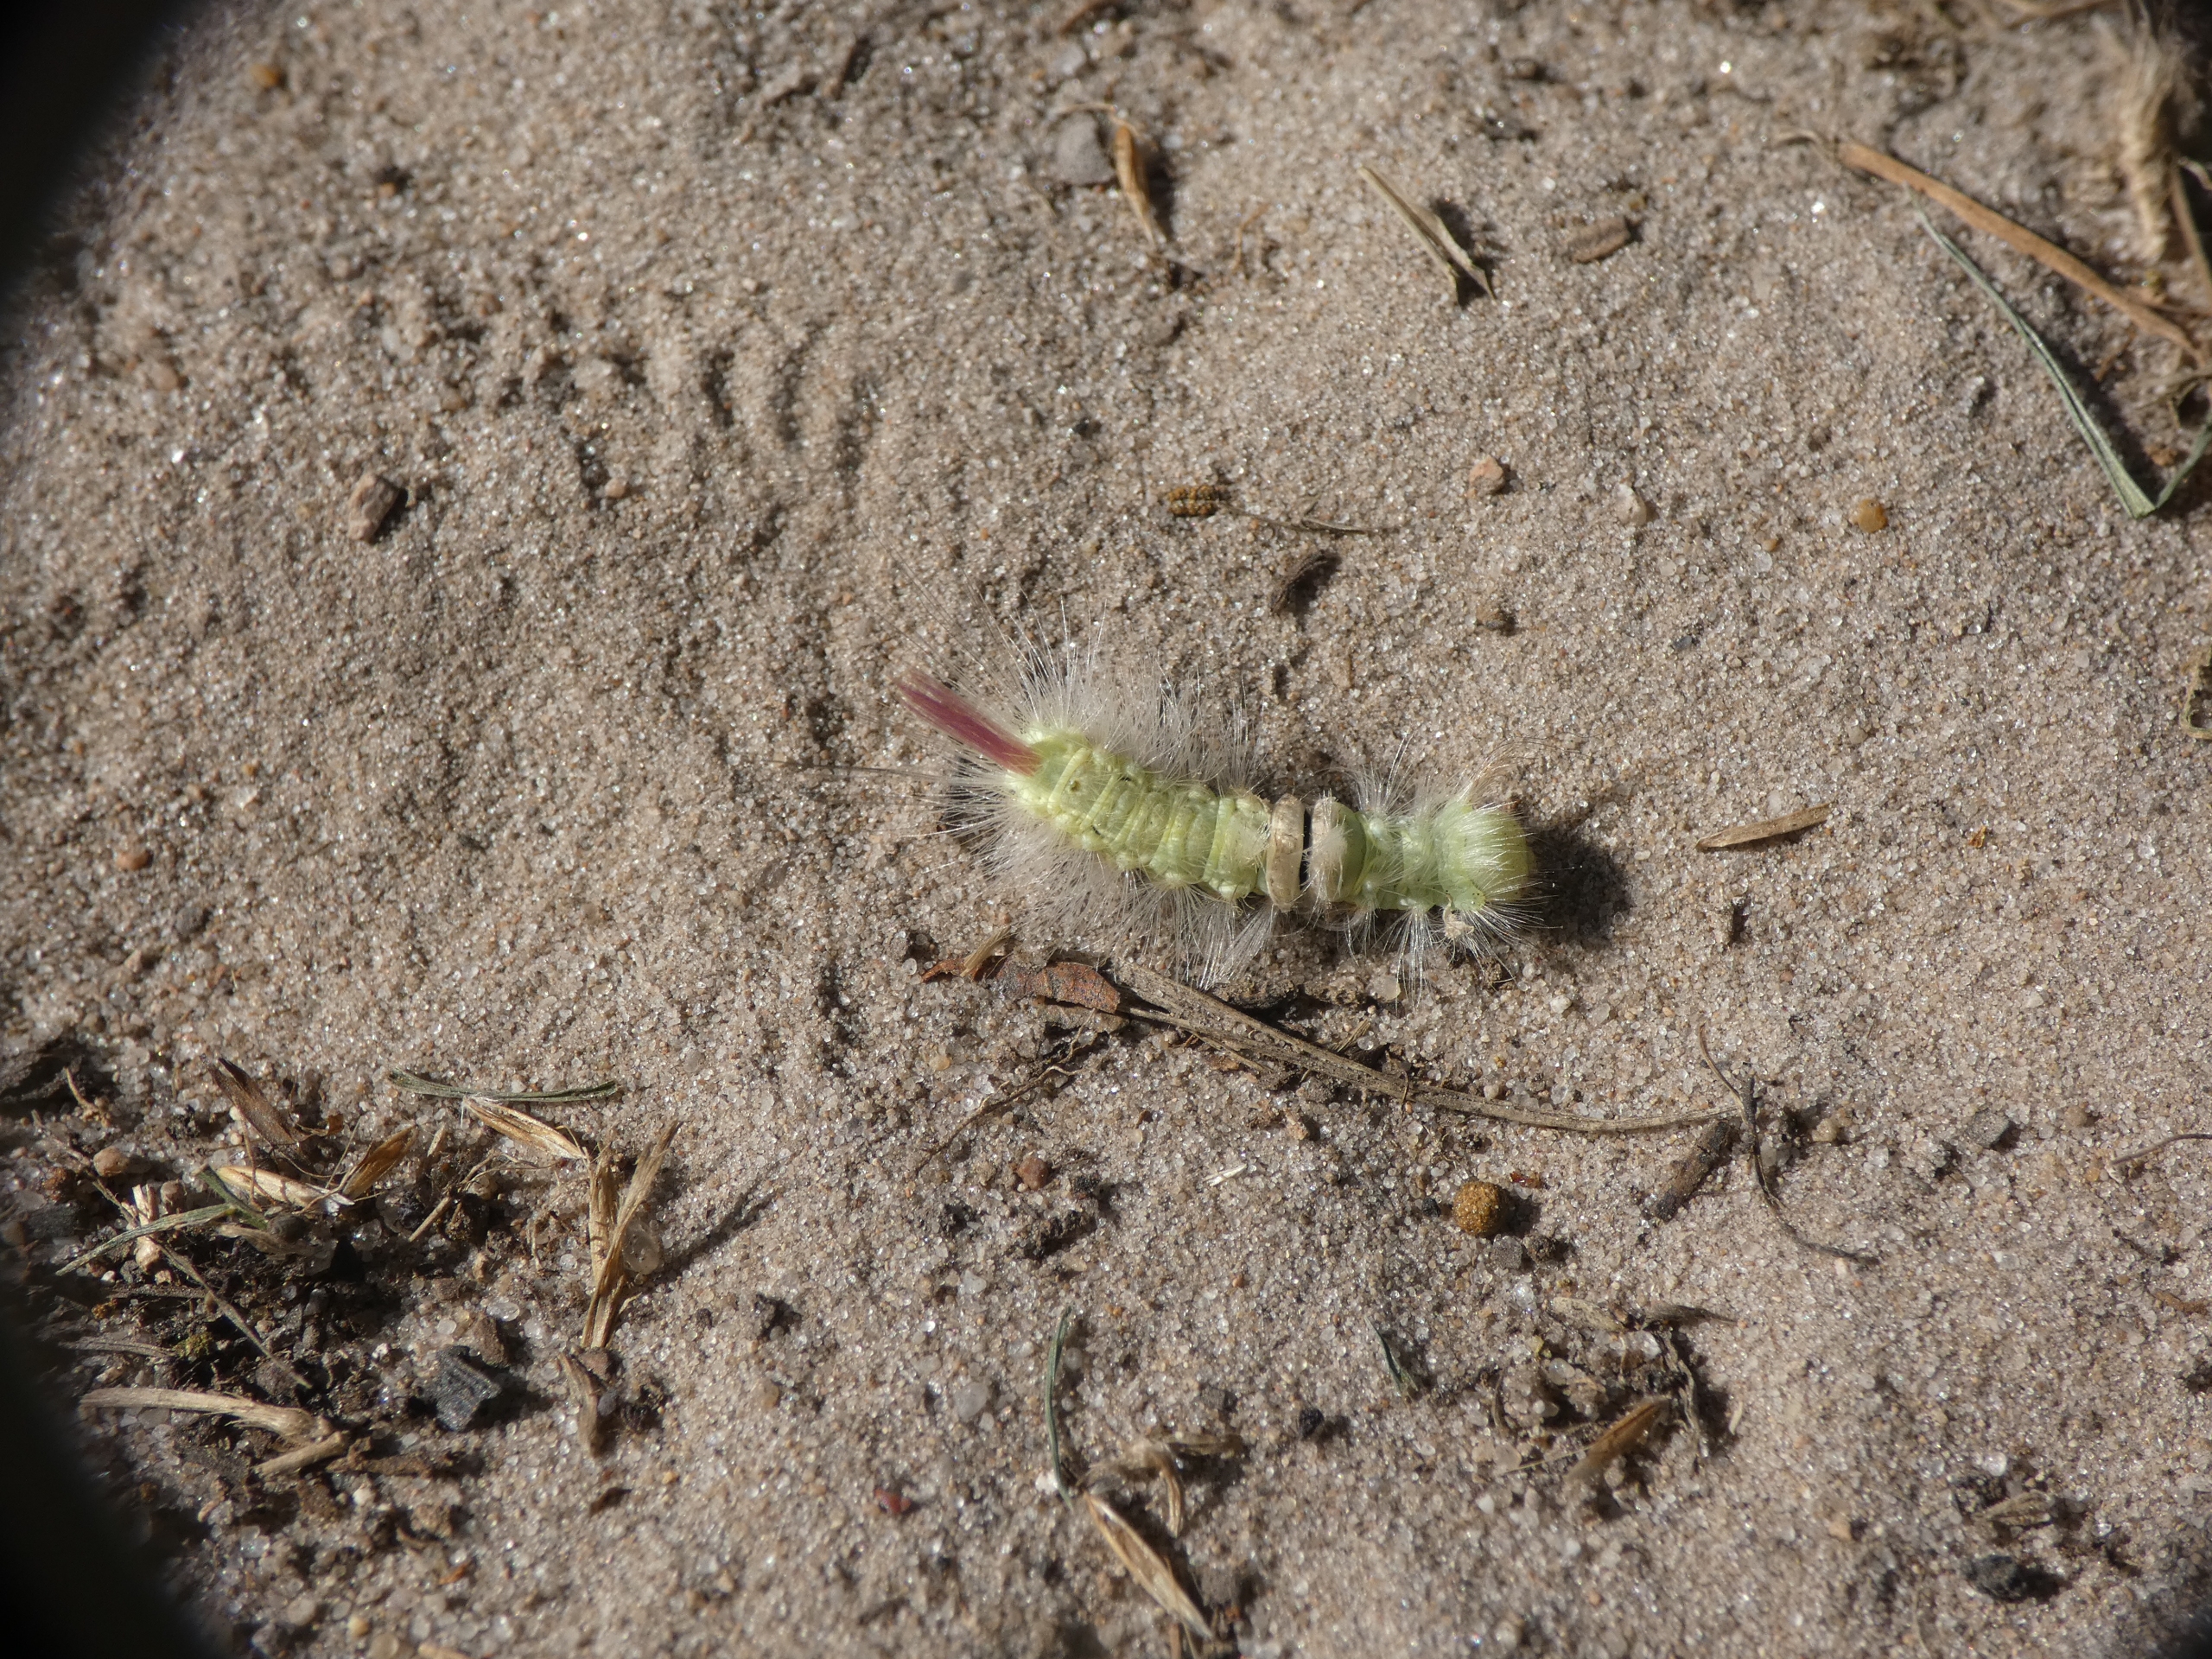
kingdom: Animalia
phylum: Arthropoda
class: Insecta
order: Lepidoptera
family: Erebidae
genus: Calliteara
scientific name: Calliteara pudibunda
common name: Bøgenonne
